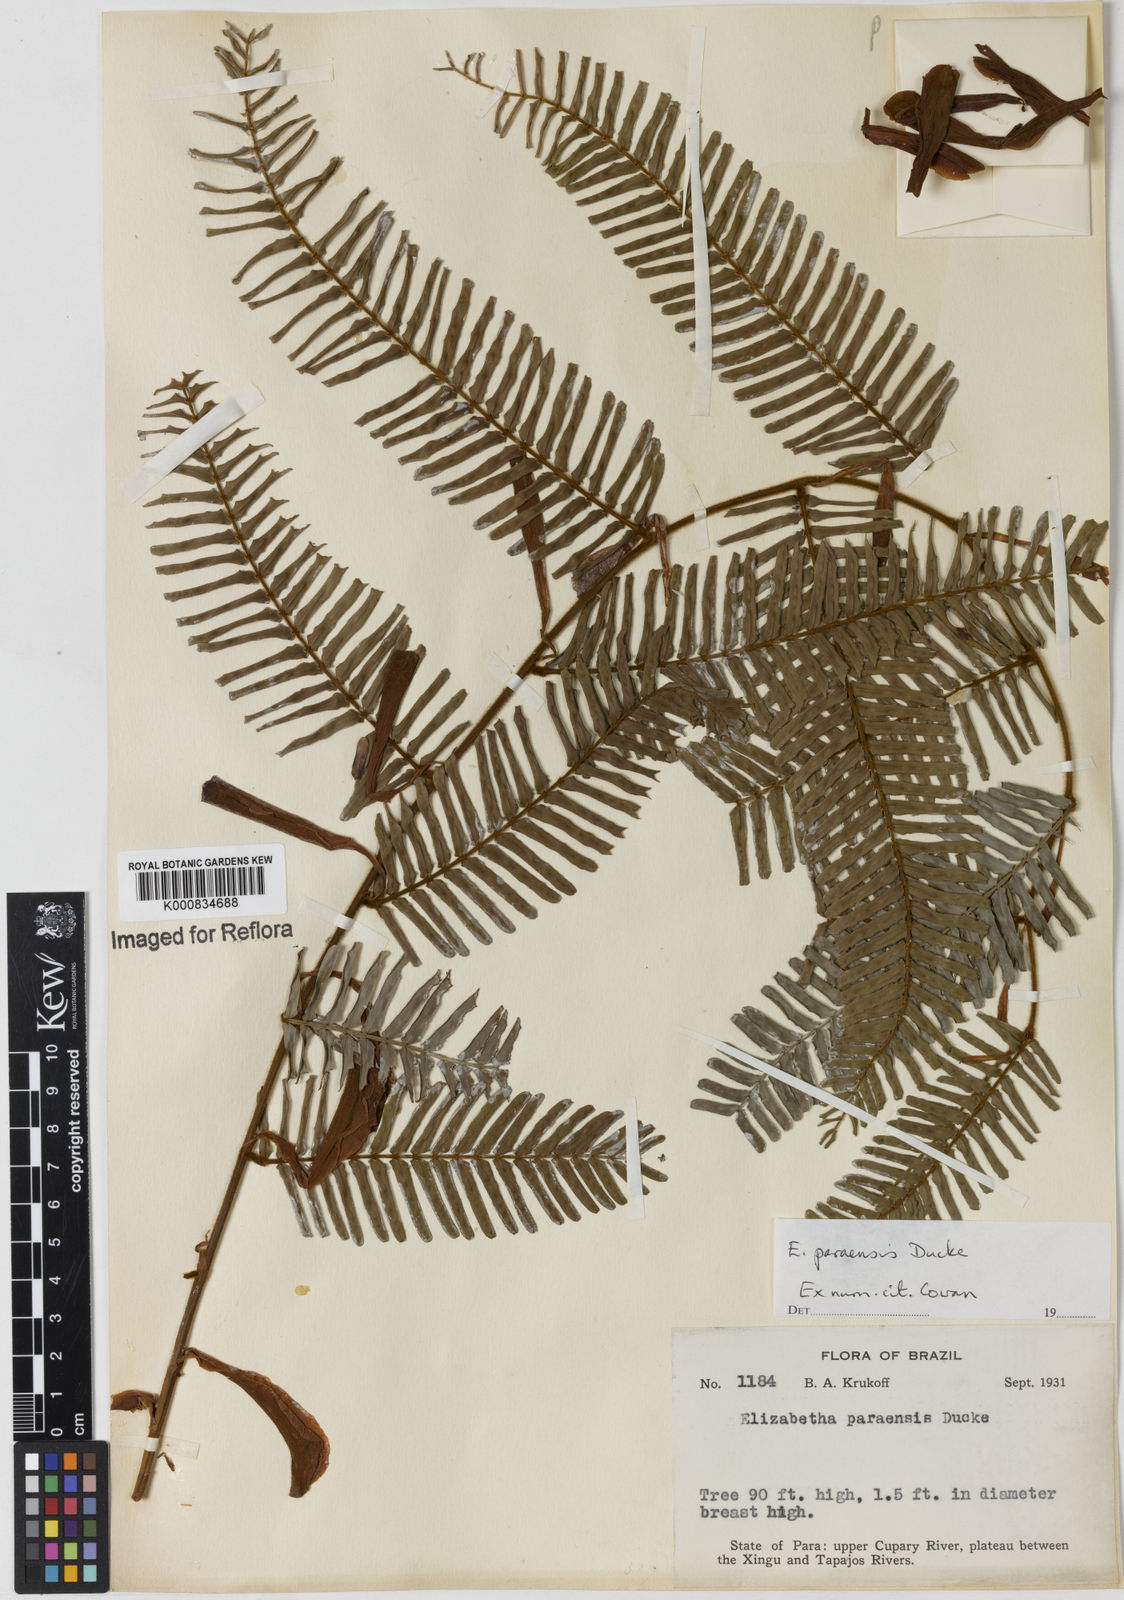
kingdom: Plantae
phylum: Tracheophyta
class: Magnoliopsida
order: Fabales
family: Fabaceae
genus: Paloue
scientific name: Paloue paraensis
